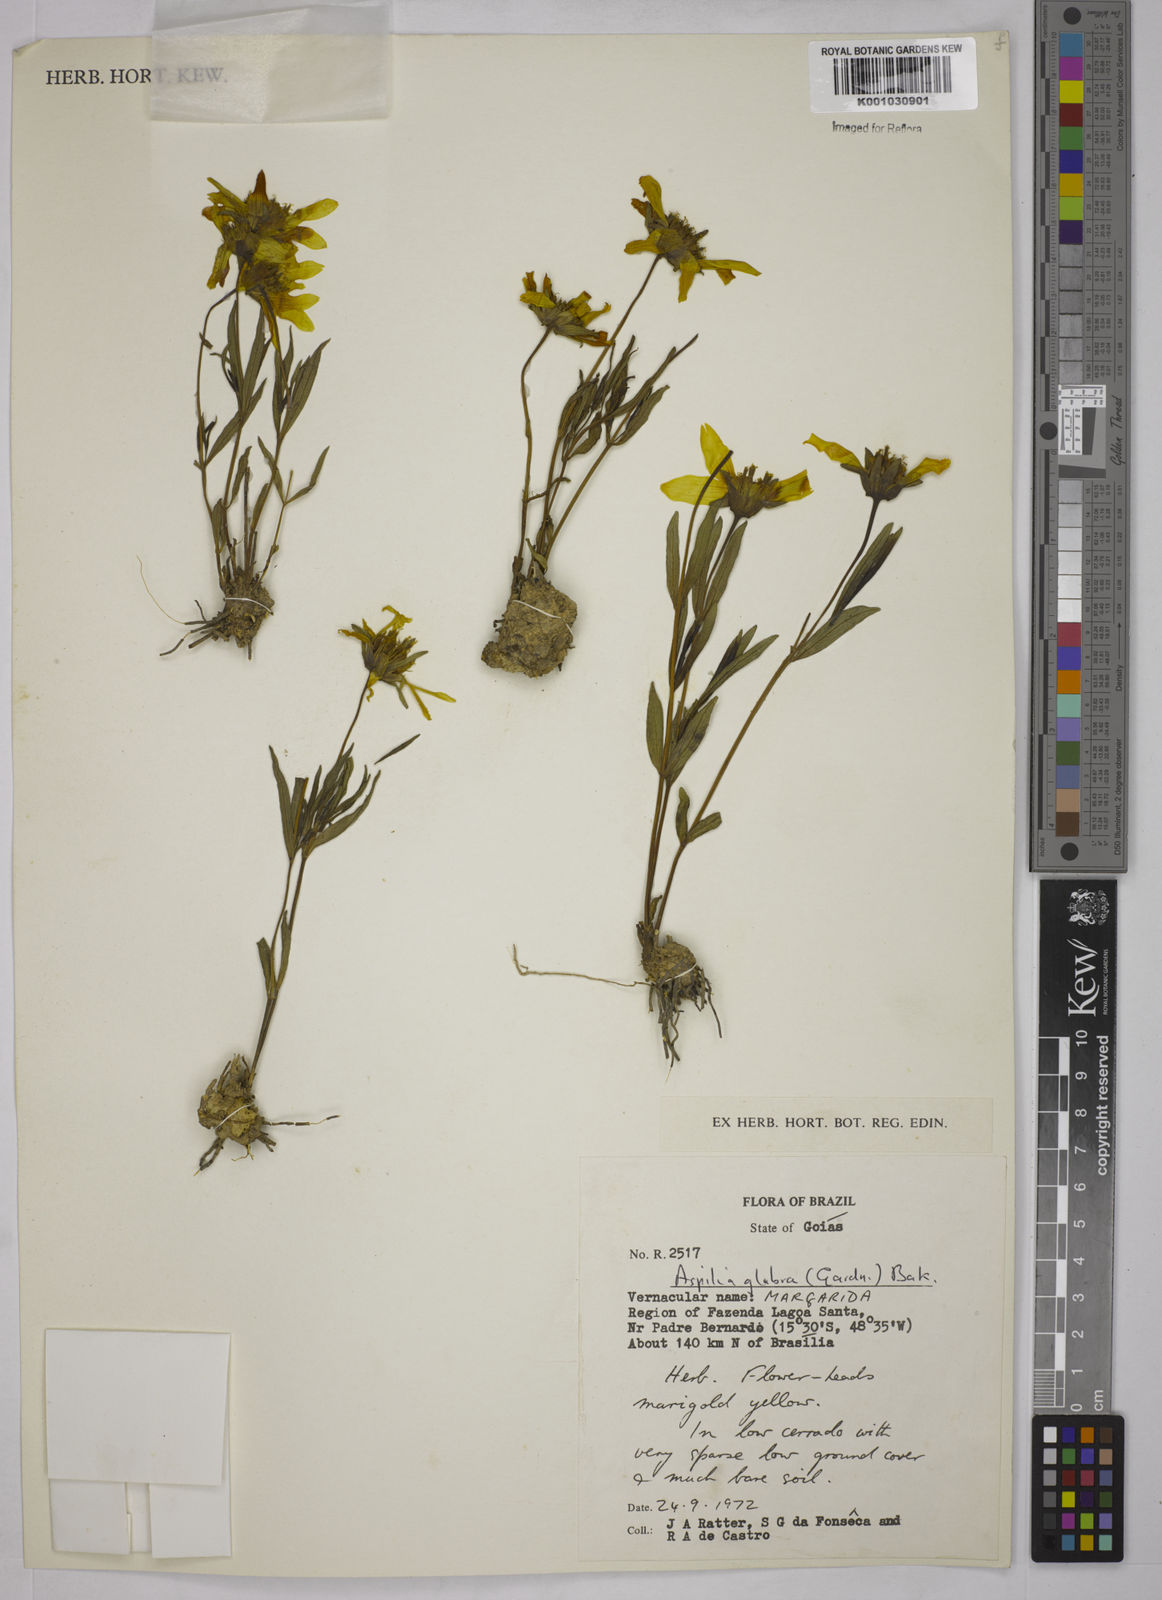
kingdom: Plantae
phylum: Tracheophyta
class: Magnoliopsida
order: Asterales
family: Asteraceae
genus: Wedelia
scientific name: Wedelia foliacea
